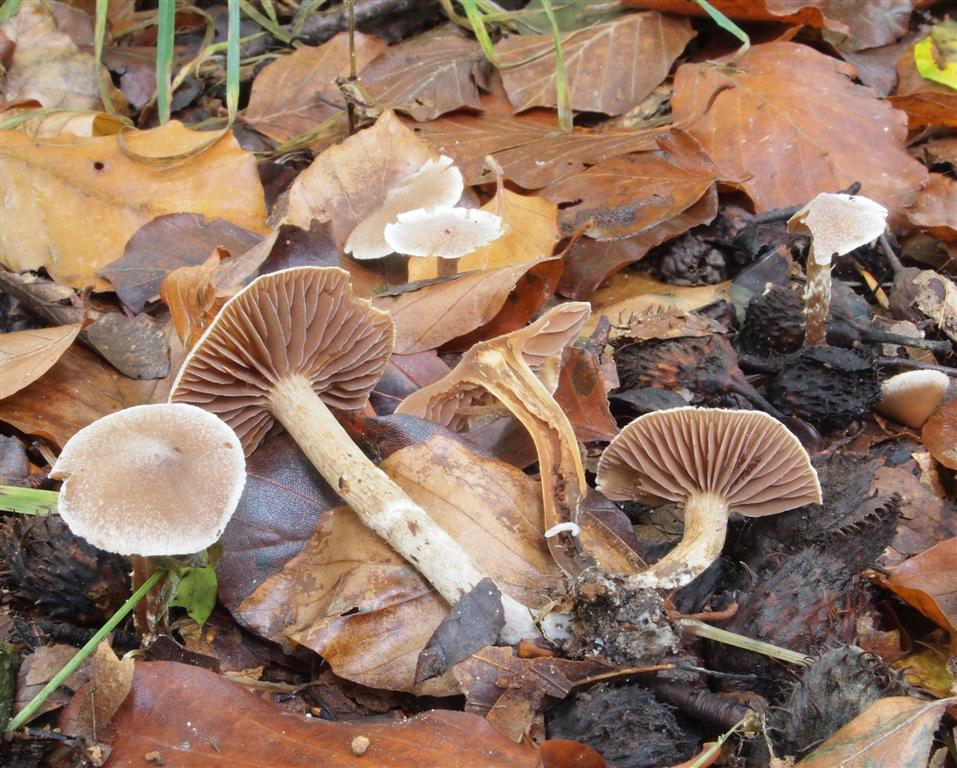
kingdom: Fungi
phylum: Basidiomycota
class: Agaricomycetes
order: Agaricales
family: Cortinariaceae
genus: Cortinarius
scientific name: Cortinarius geraniolens
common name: geranium-slørhat
